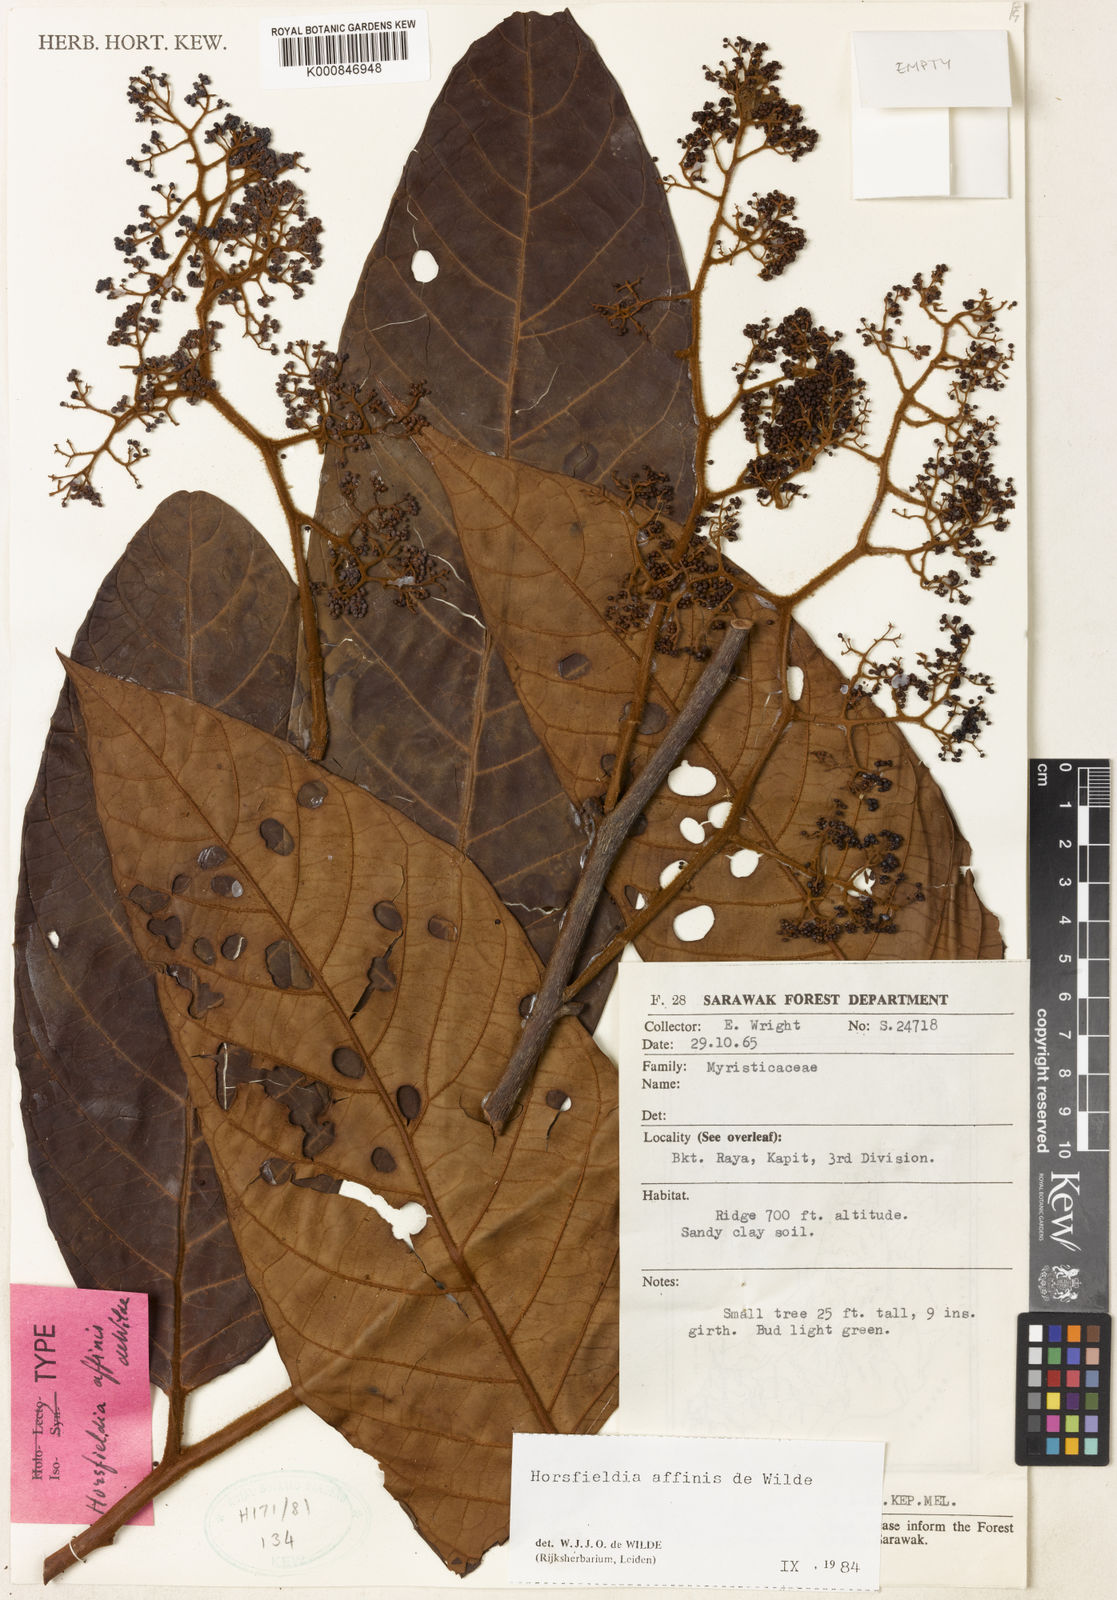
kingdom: Plantae
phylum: Tracheophyta
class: Magnoliopsida
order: Magnoliales
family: Myristicaceae
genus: Horsfieldia
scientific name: Horsfieldia reticulata
